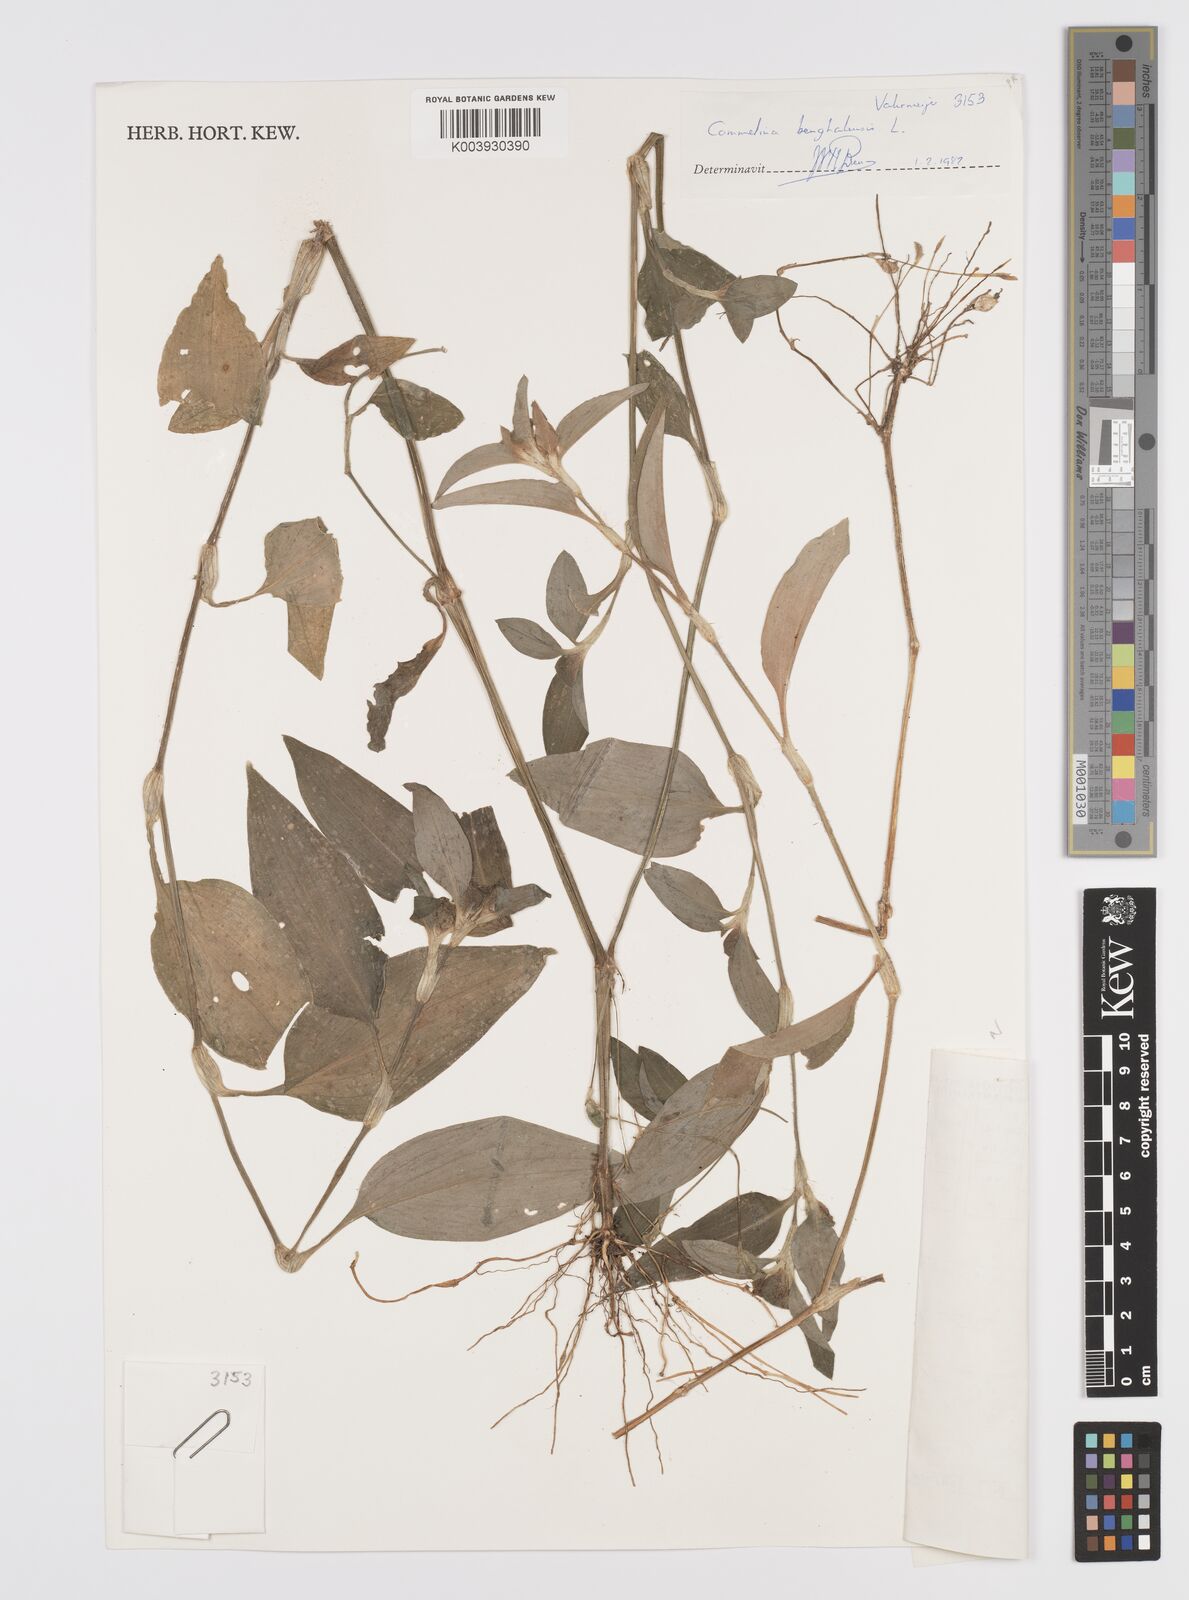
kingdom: Plantae
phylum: Tracheophyta
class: Liliopsida
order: Commelinales
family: Commelinaceae
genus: Commelina
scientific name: Commelina benghalensis
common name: Jio
